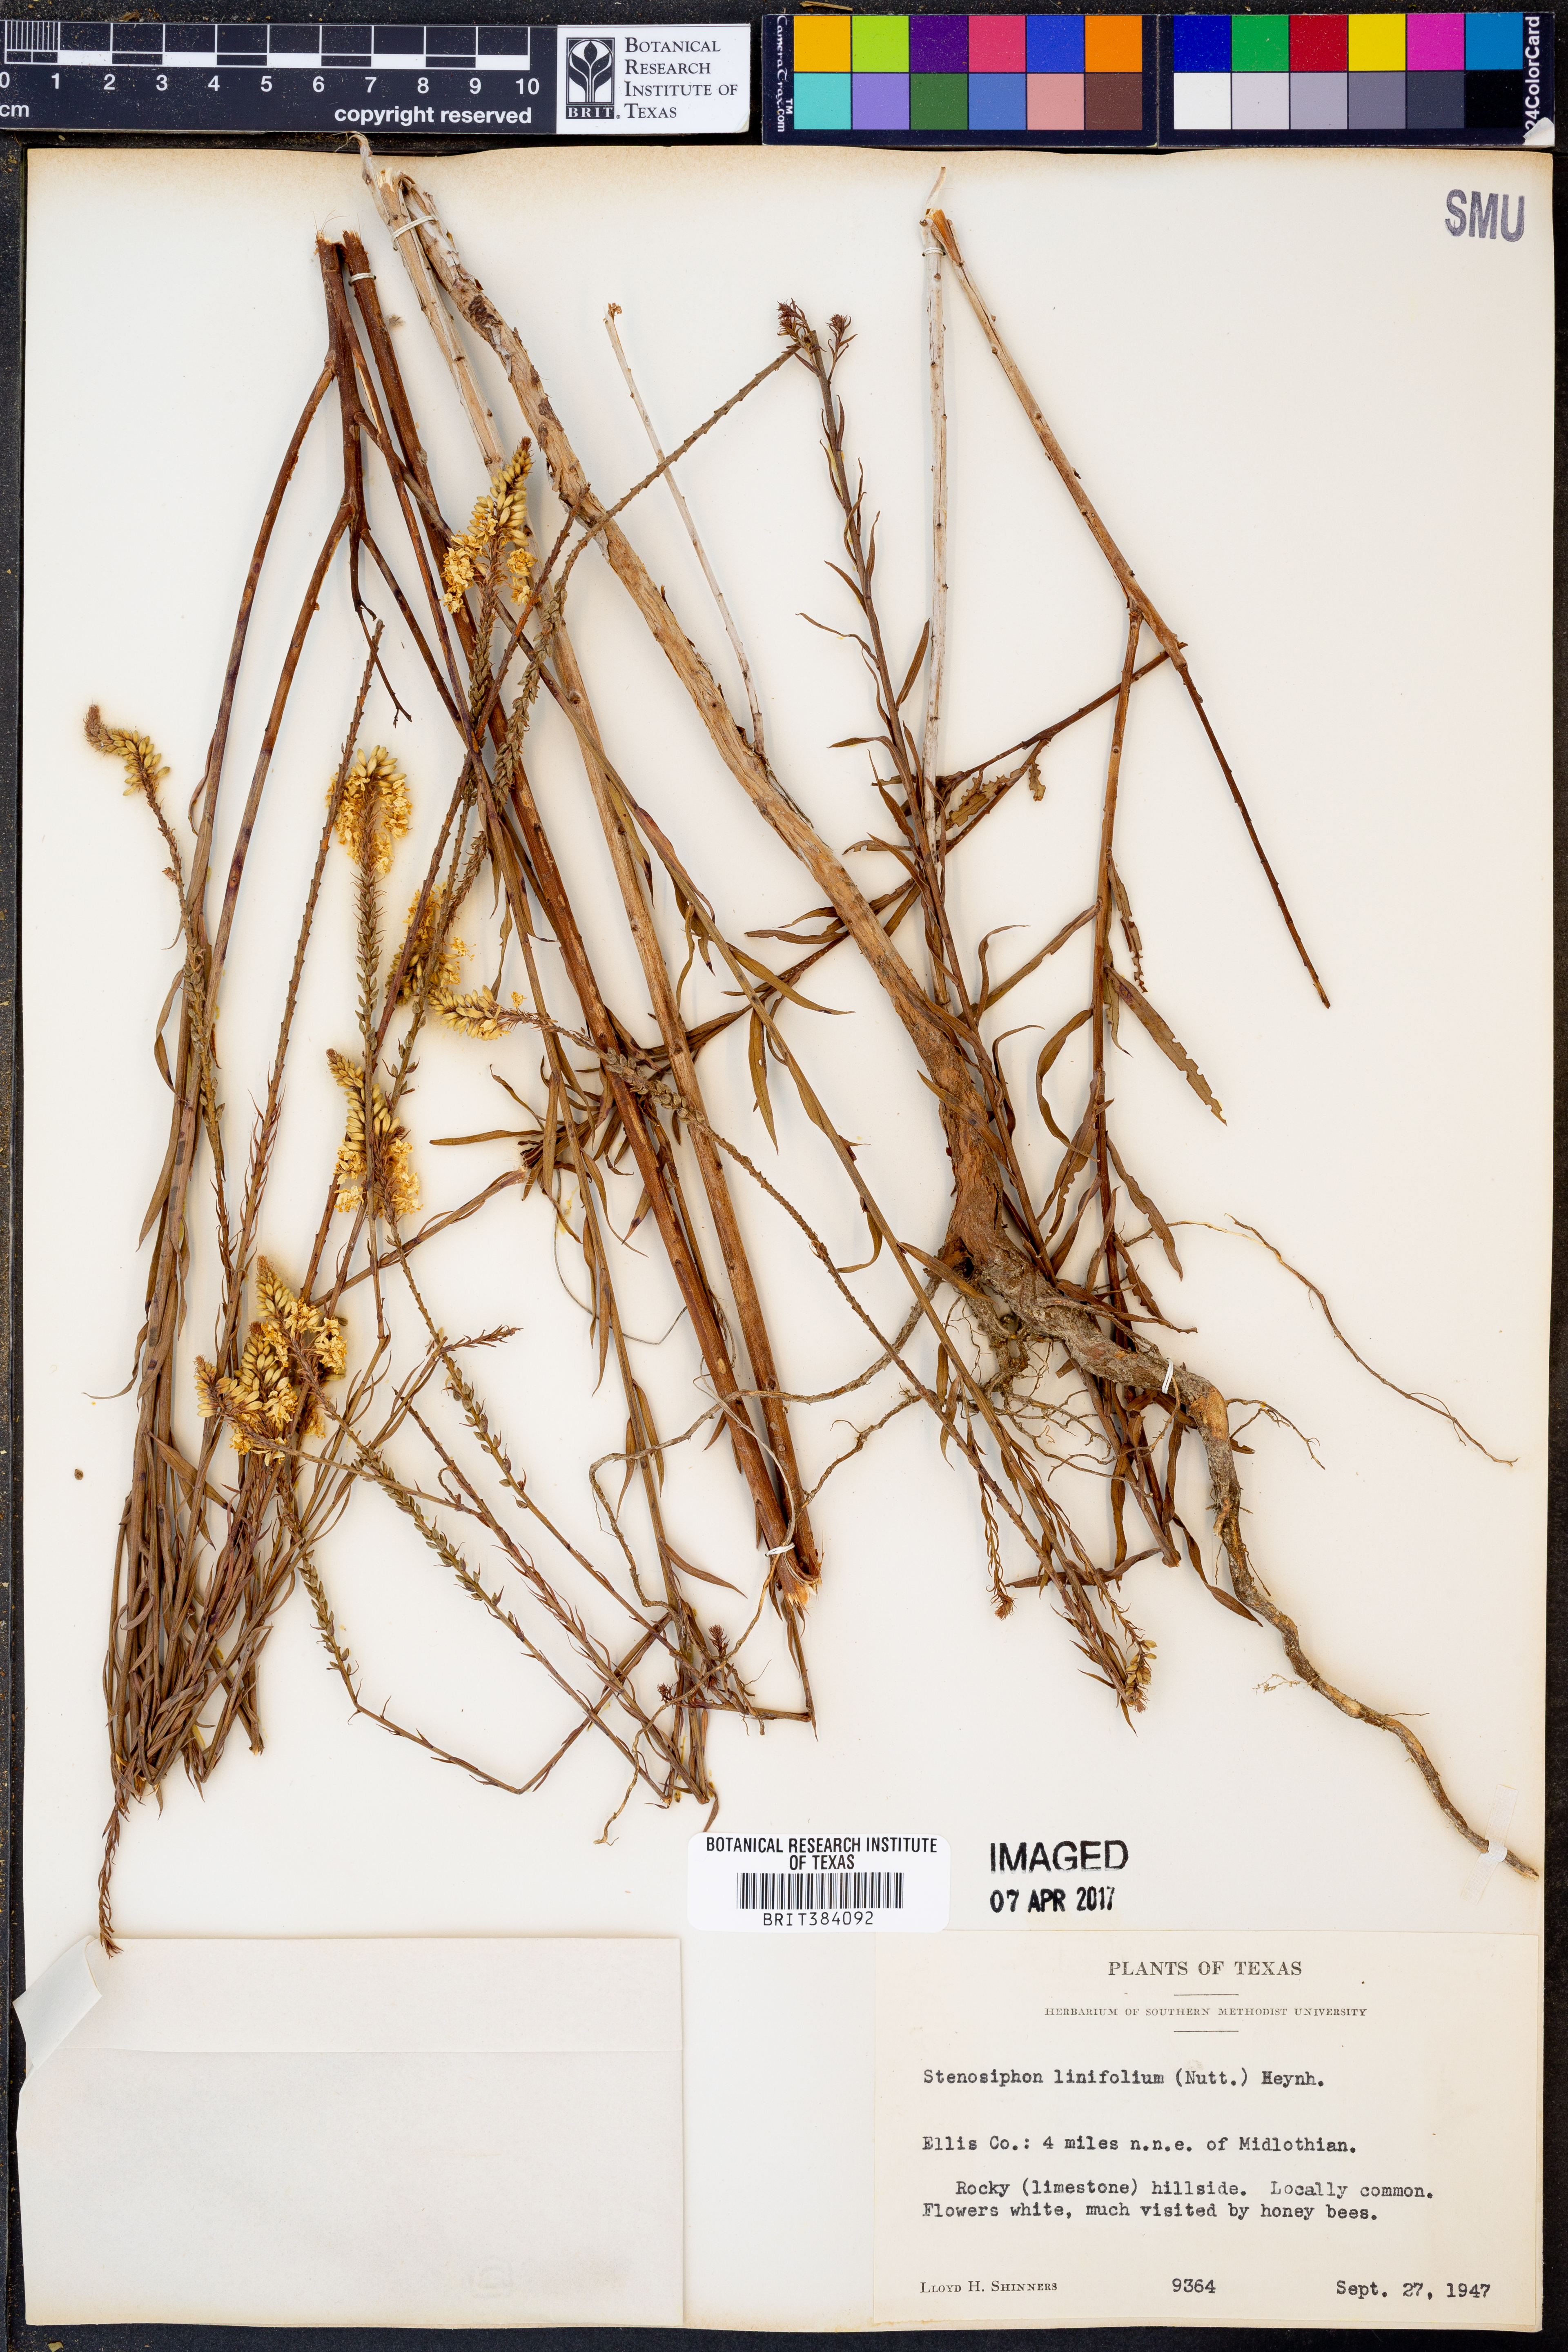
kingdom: Plantae
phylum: Tracheophyta
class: Magnoliopsida
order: Myrtales
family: Onagraceae
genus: Oenothera
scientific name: Oenothera glaucifolia
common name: False gaura
